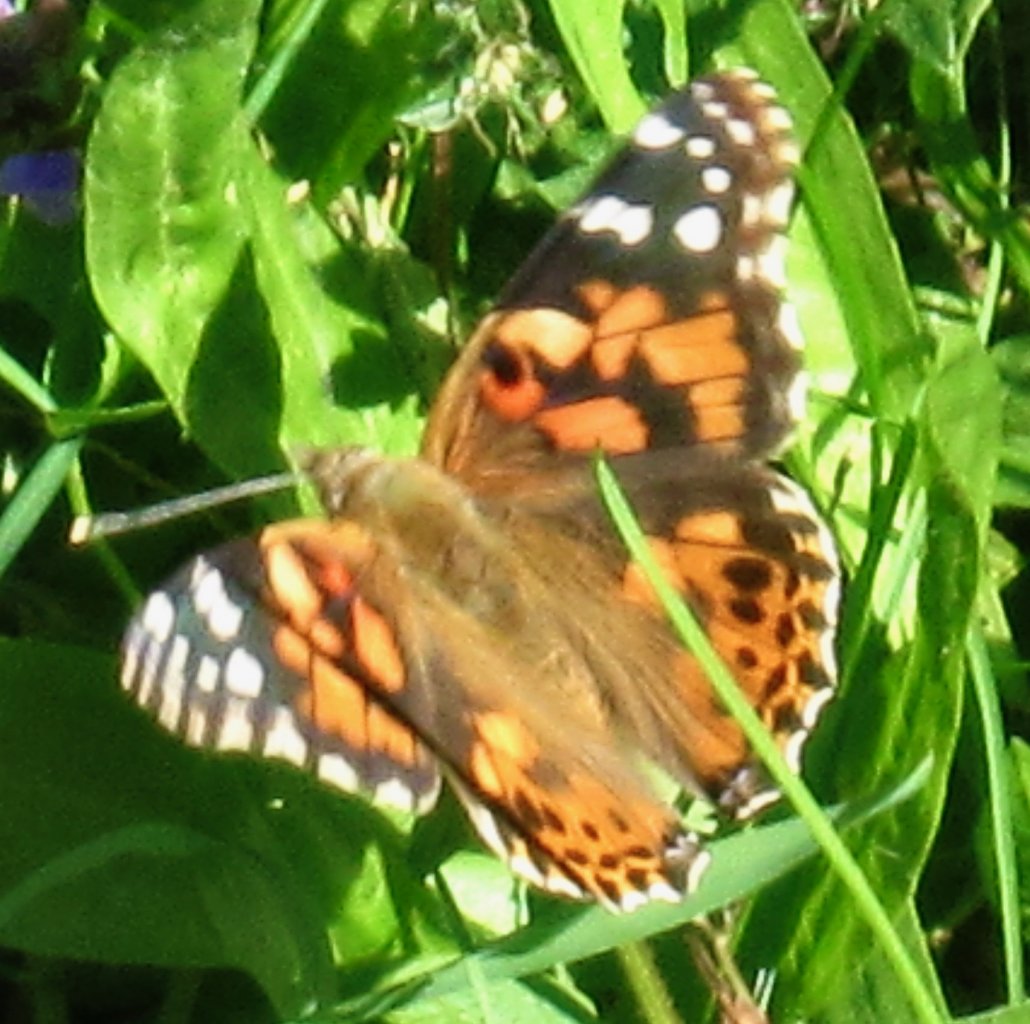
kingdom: Animalia
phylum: Arthropoda
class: Insecta
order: Lepidoptera
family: Nymphalidae
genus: Vanessa
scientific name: Vanessa cardui
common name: Painted Lady
